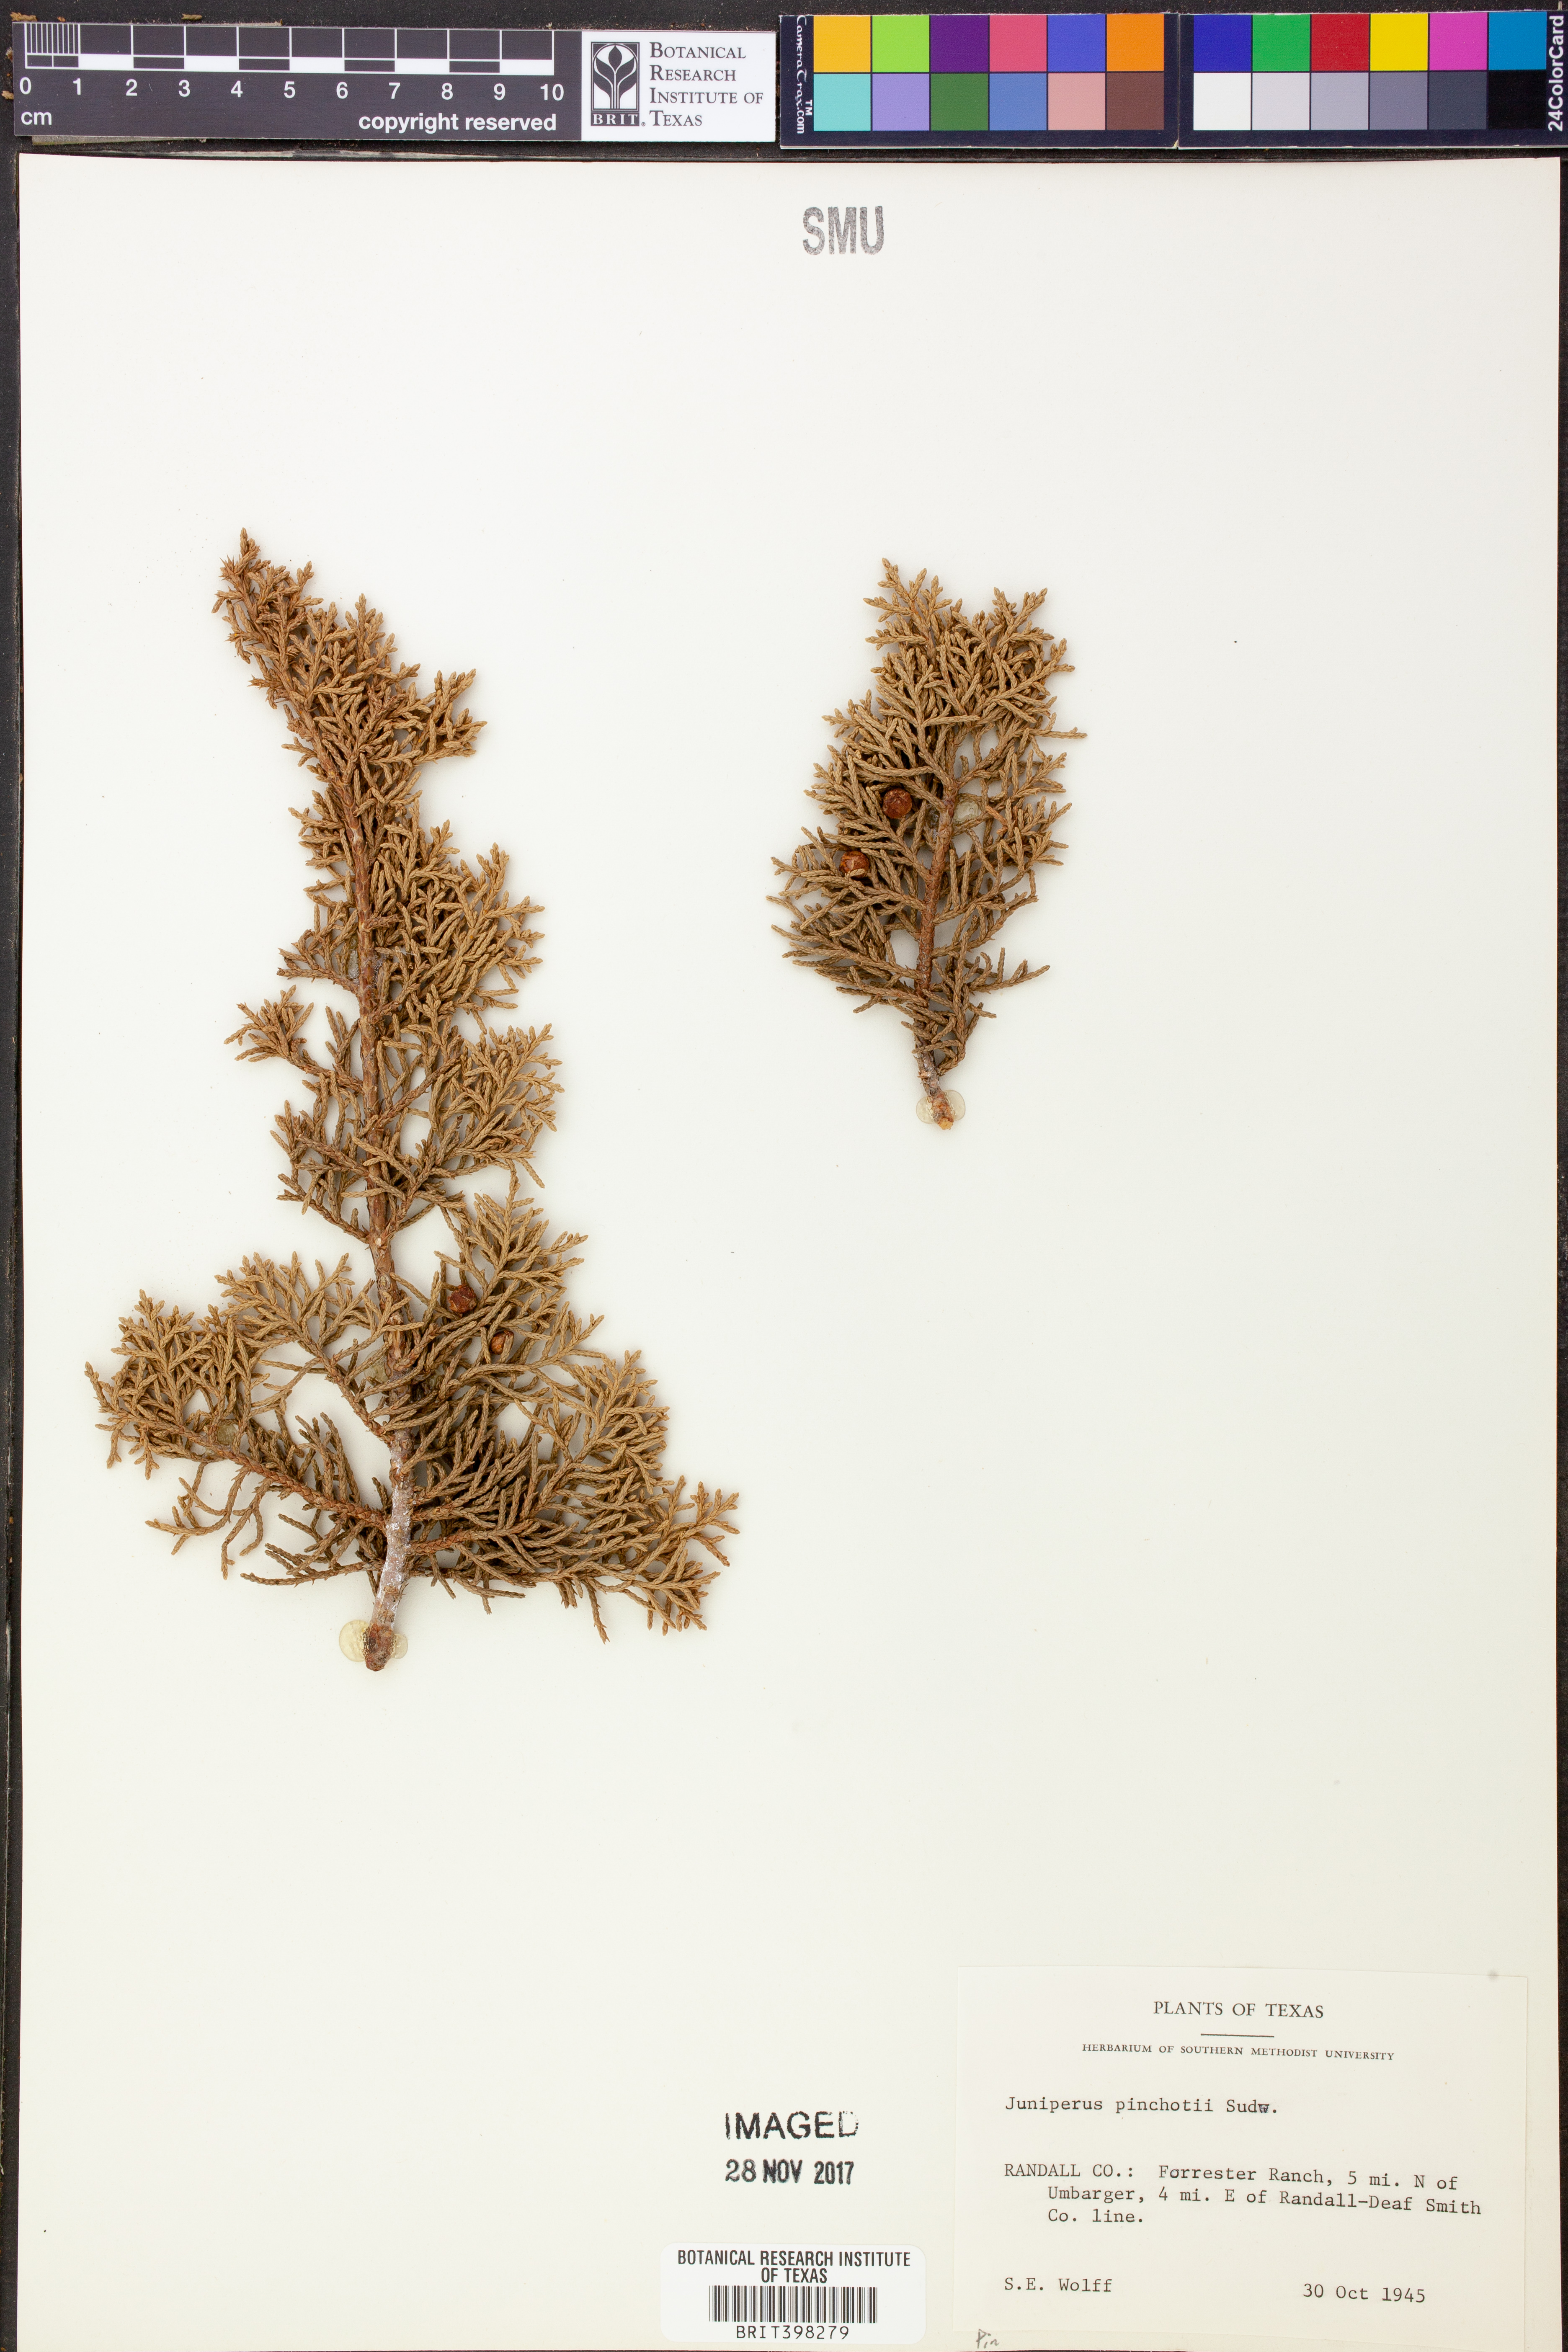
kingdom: Plantae
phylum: Tracheophyta
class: Pinopsida
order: Pinales
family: Cupressaceae
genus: Juniperus
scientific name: Juniperus pinchotii
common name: Pinchot juniper
